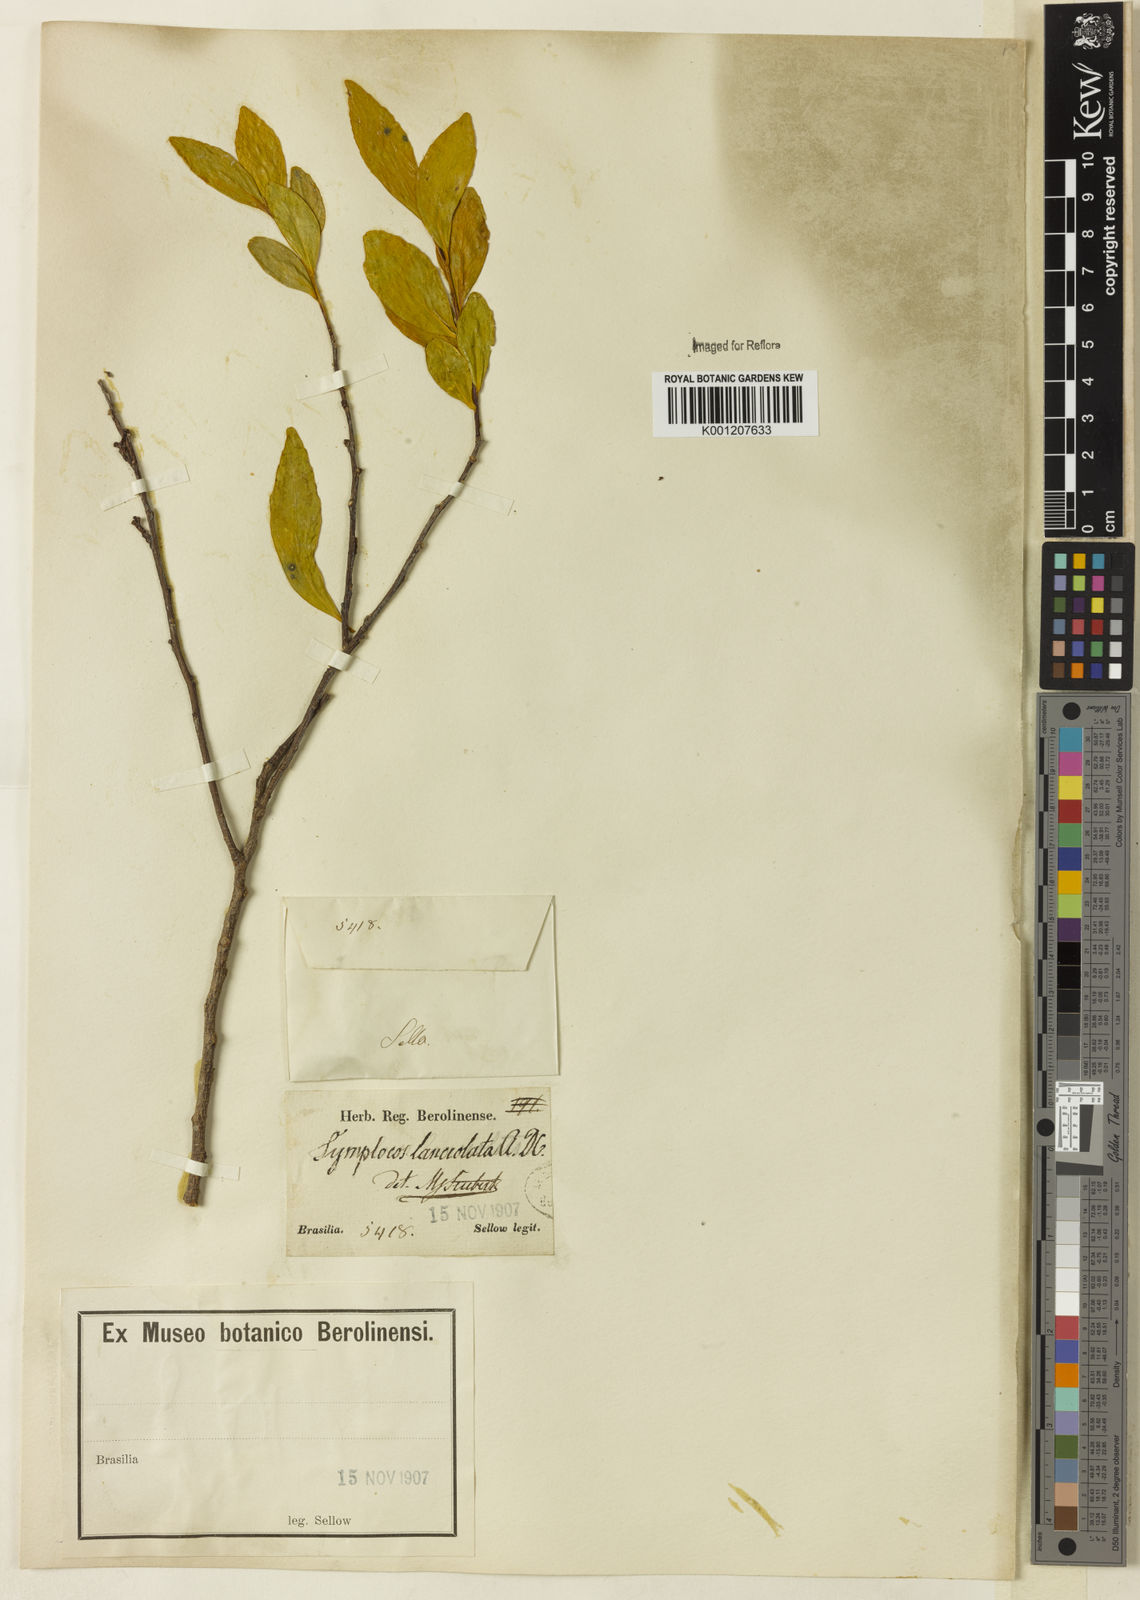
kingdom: Plantae
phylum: Tracheophyta
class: Magnoliopsida
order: Ericales
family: Symplocaceae
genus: Symplocos
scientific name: Symplocos oblongifolia
